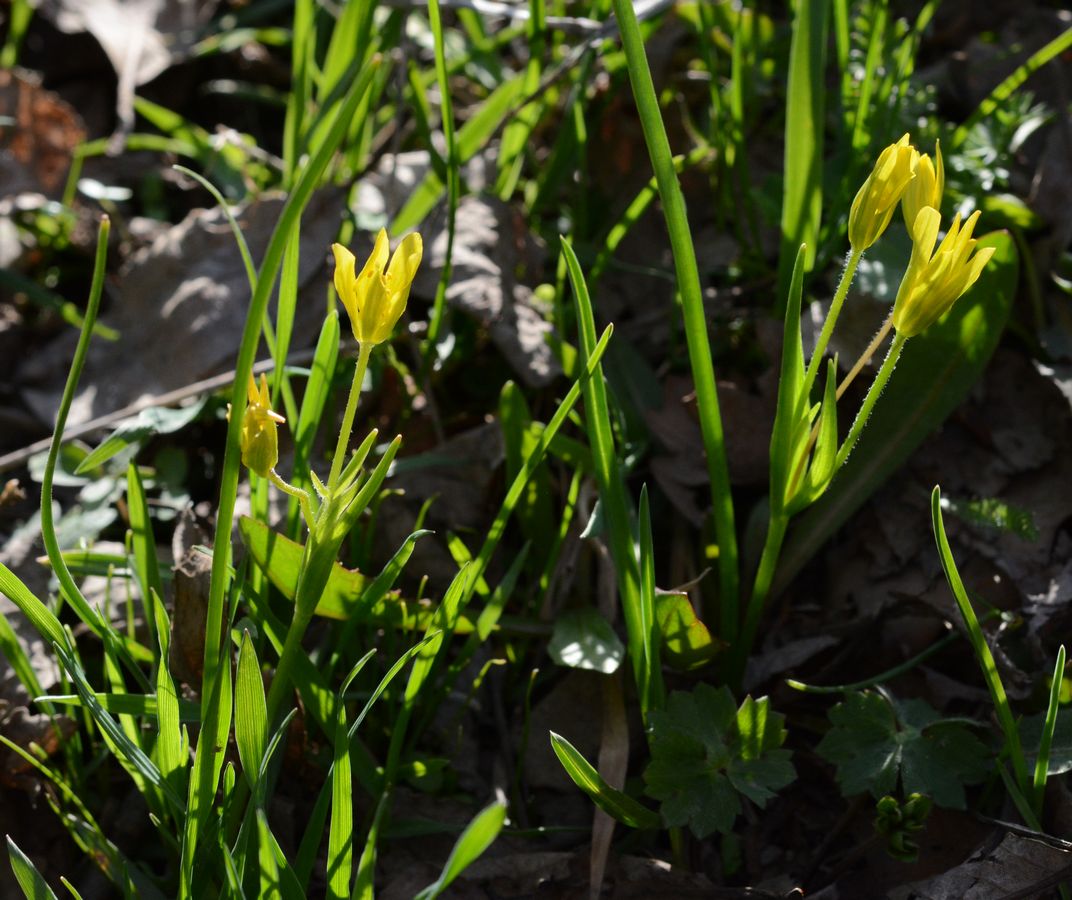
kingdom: Plantae
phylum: Tracheophyta
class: Liliopsida
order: Liliales
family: Liliaceae
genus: Gagea
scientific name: Gagea glacialis
